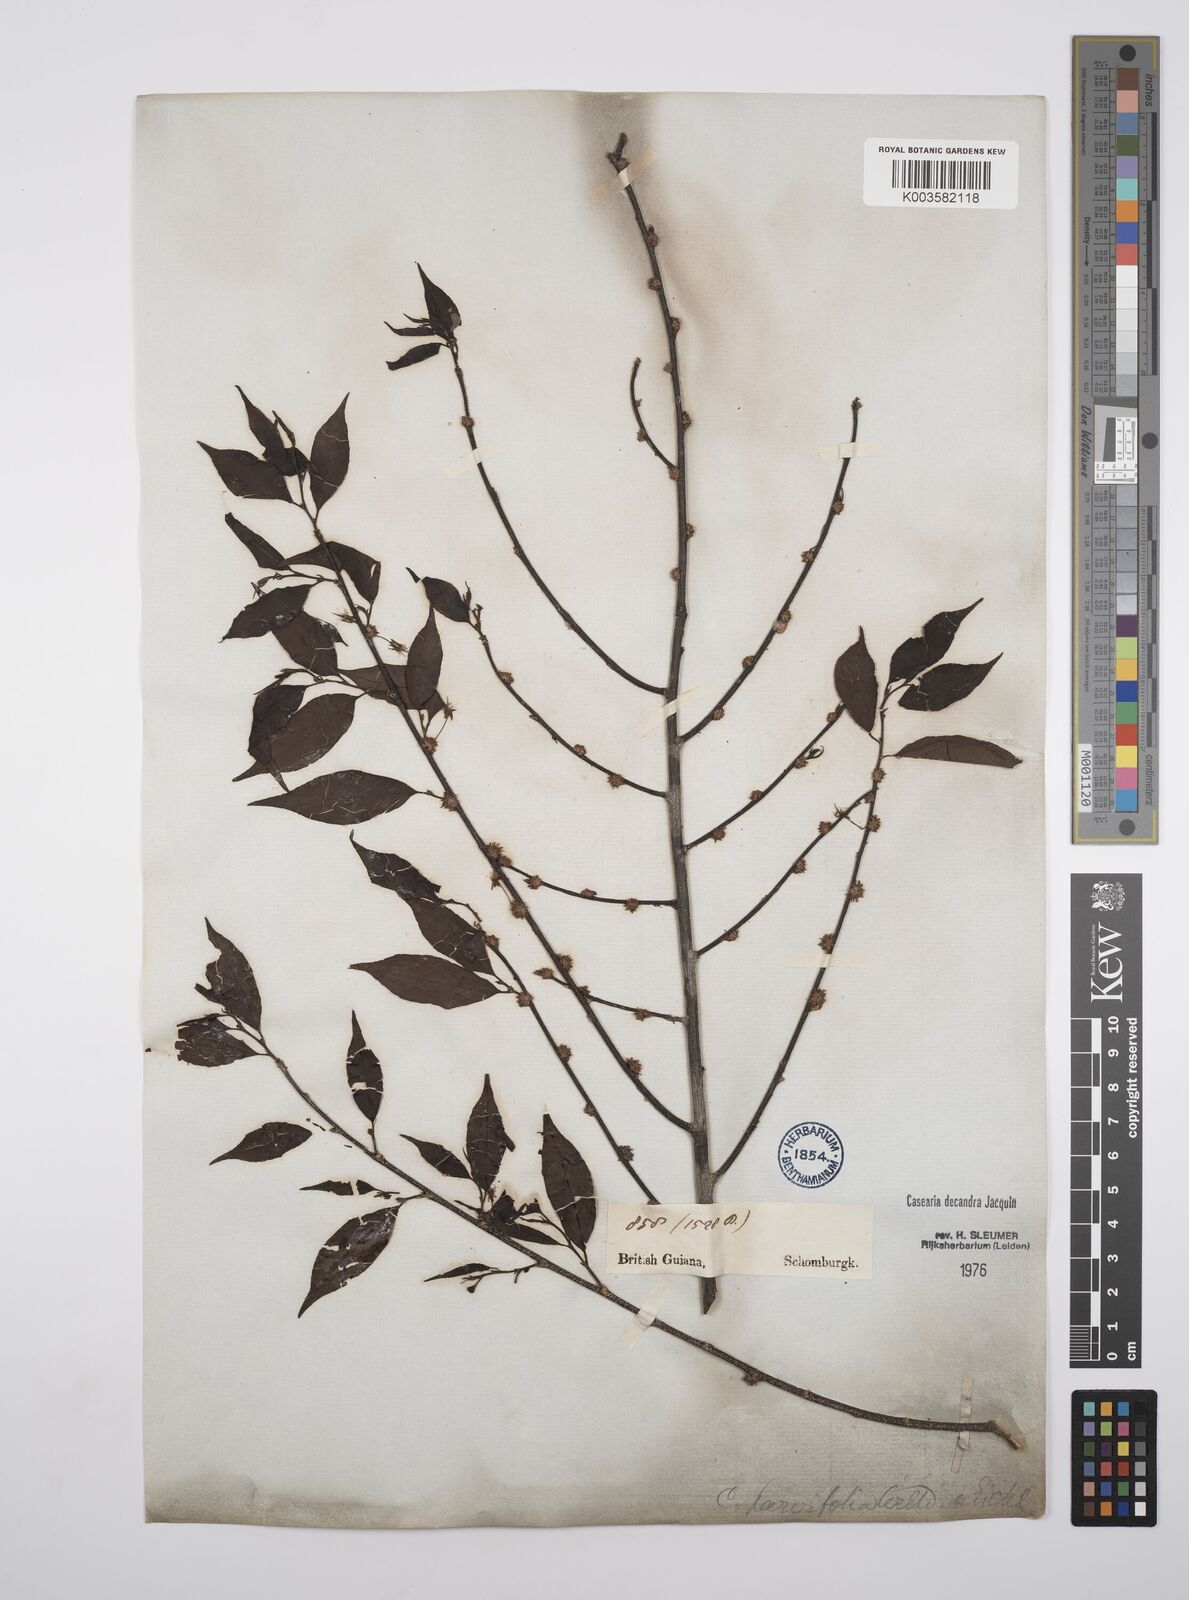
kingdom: Plantae
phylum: Tracheophyta
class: Magnoliopsida
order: Malpighiales
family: Salicaceae
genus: Casearia
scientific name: Casearia decandra
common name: Crack open
